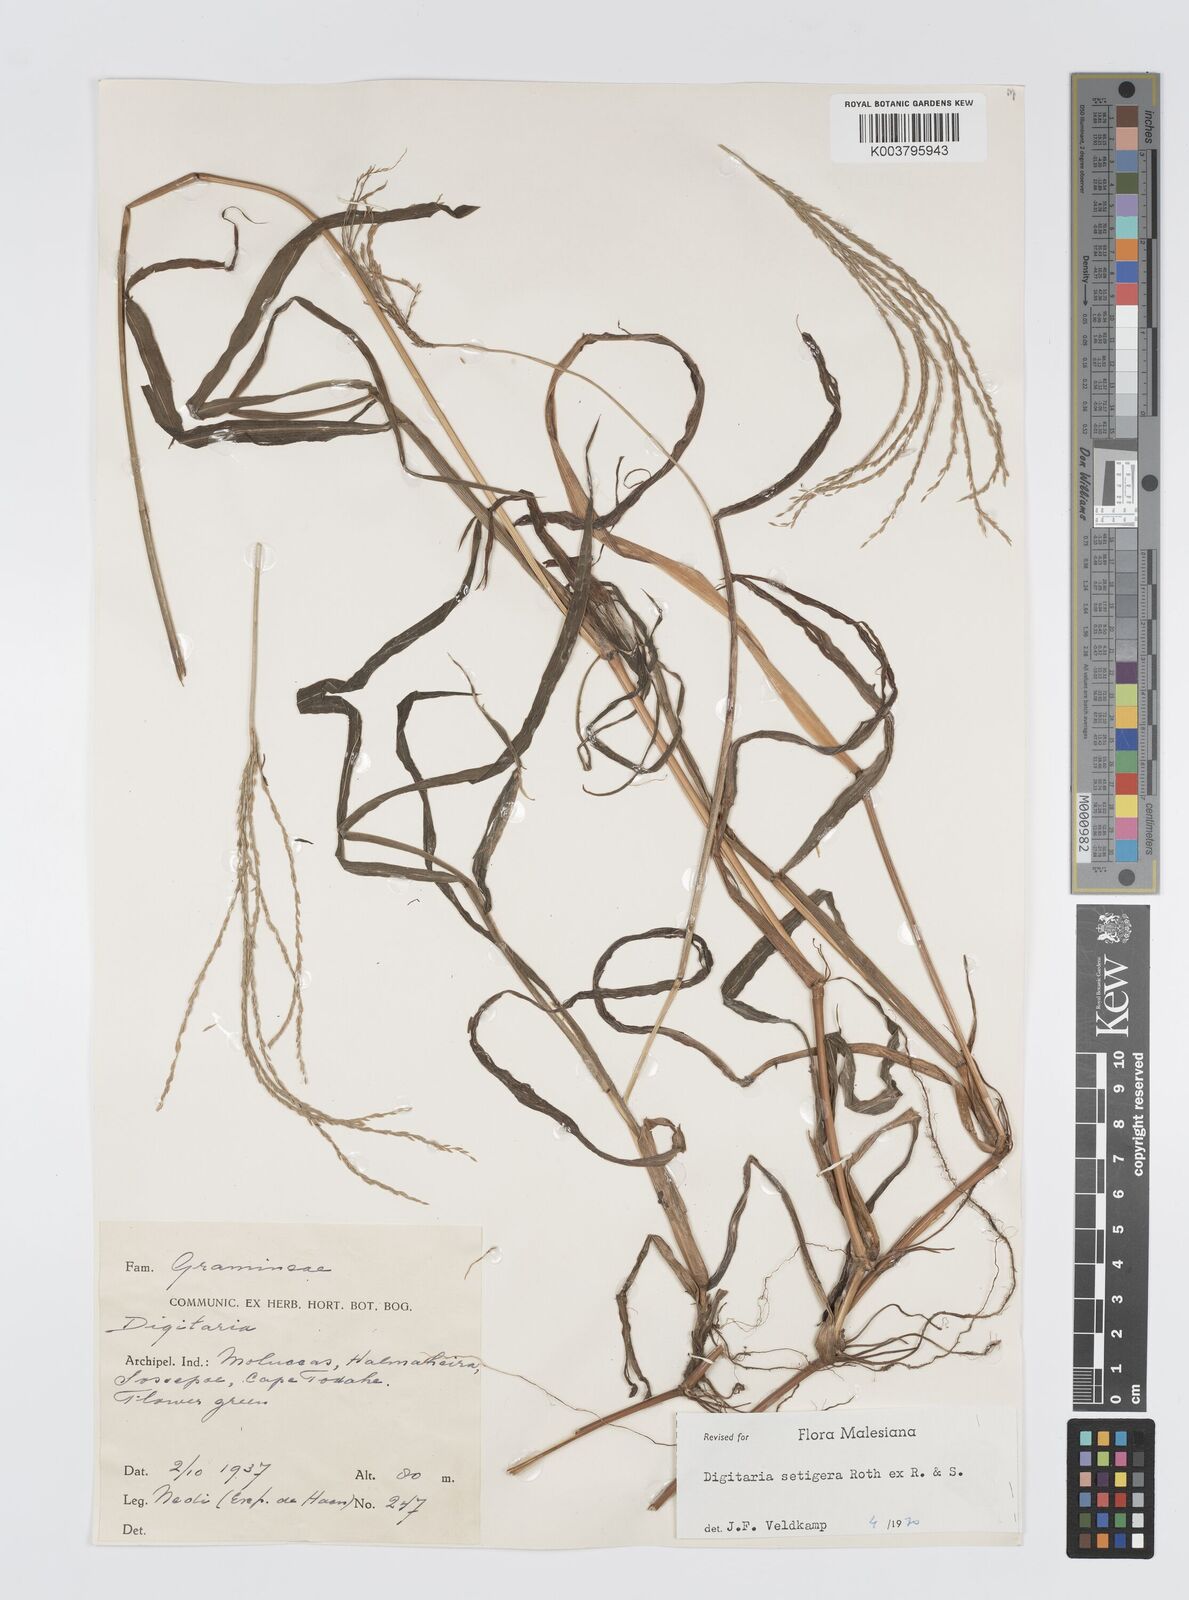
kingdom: Plantae
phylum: Tracheophyta
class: Liliopsida
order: Poales
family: Poaceae
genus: Digitaria
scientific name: Digitaria setigera
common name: East indian crabgrass
